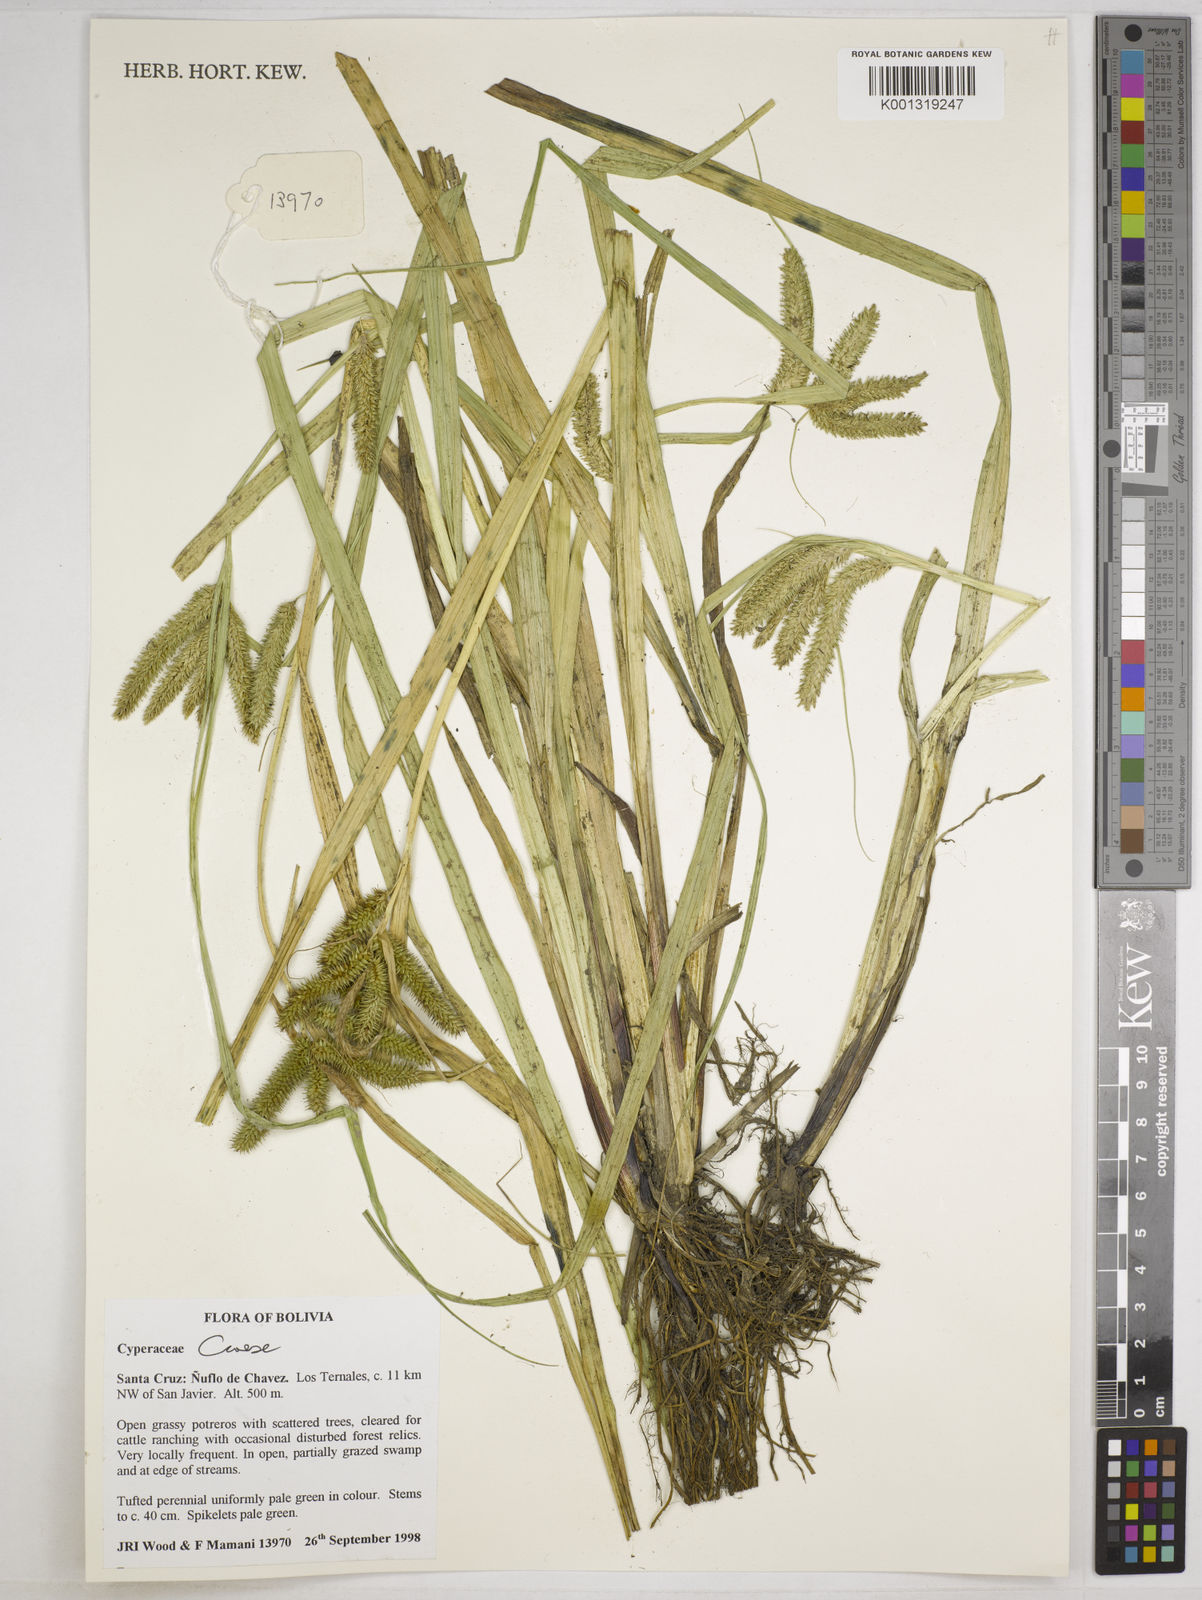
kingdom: Plantae
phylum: Tracheophyta
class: Liliopsida
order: Poales
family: Cyperaceae
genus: Carex
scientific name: Carex polysticha
